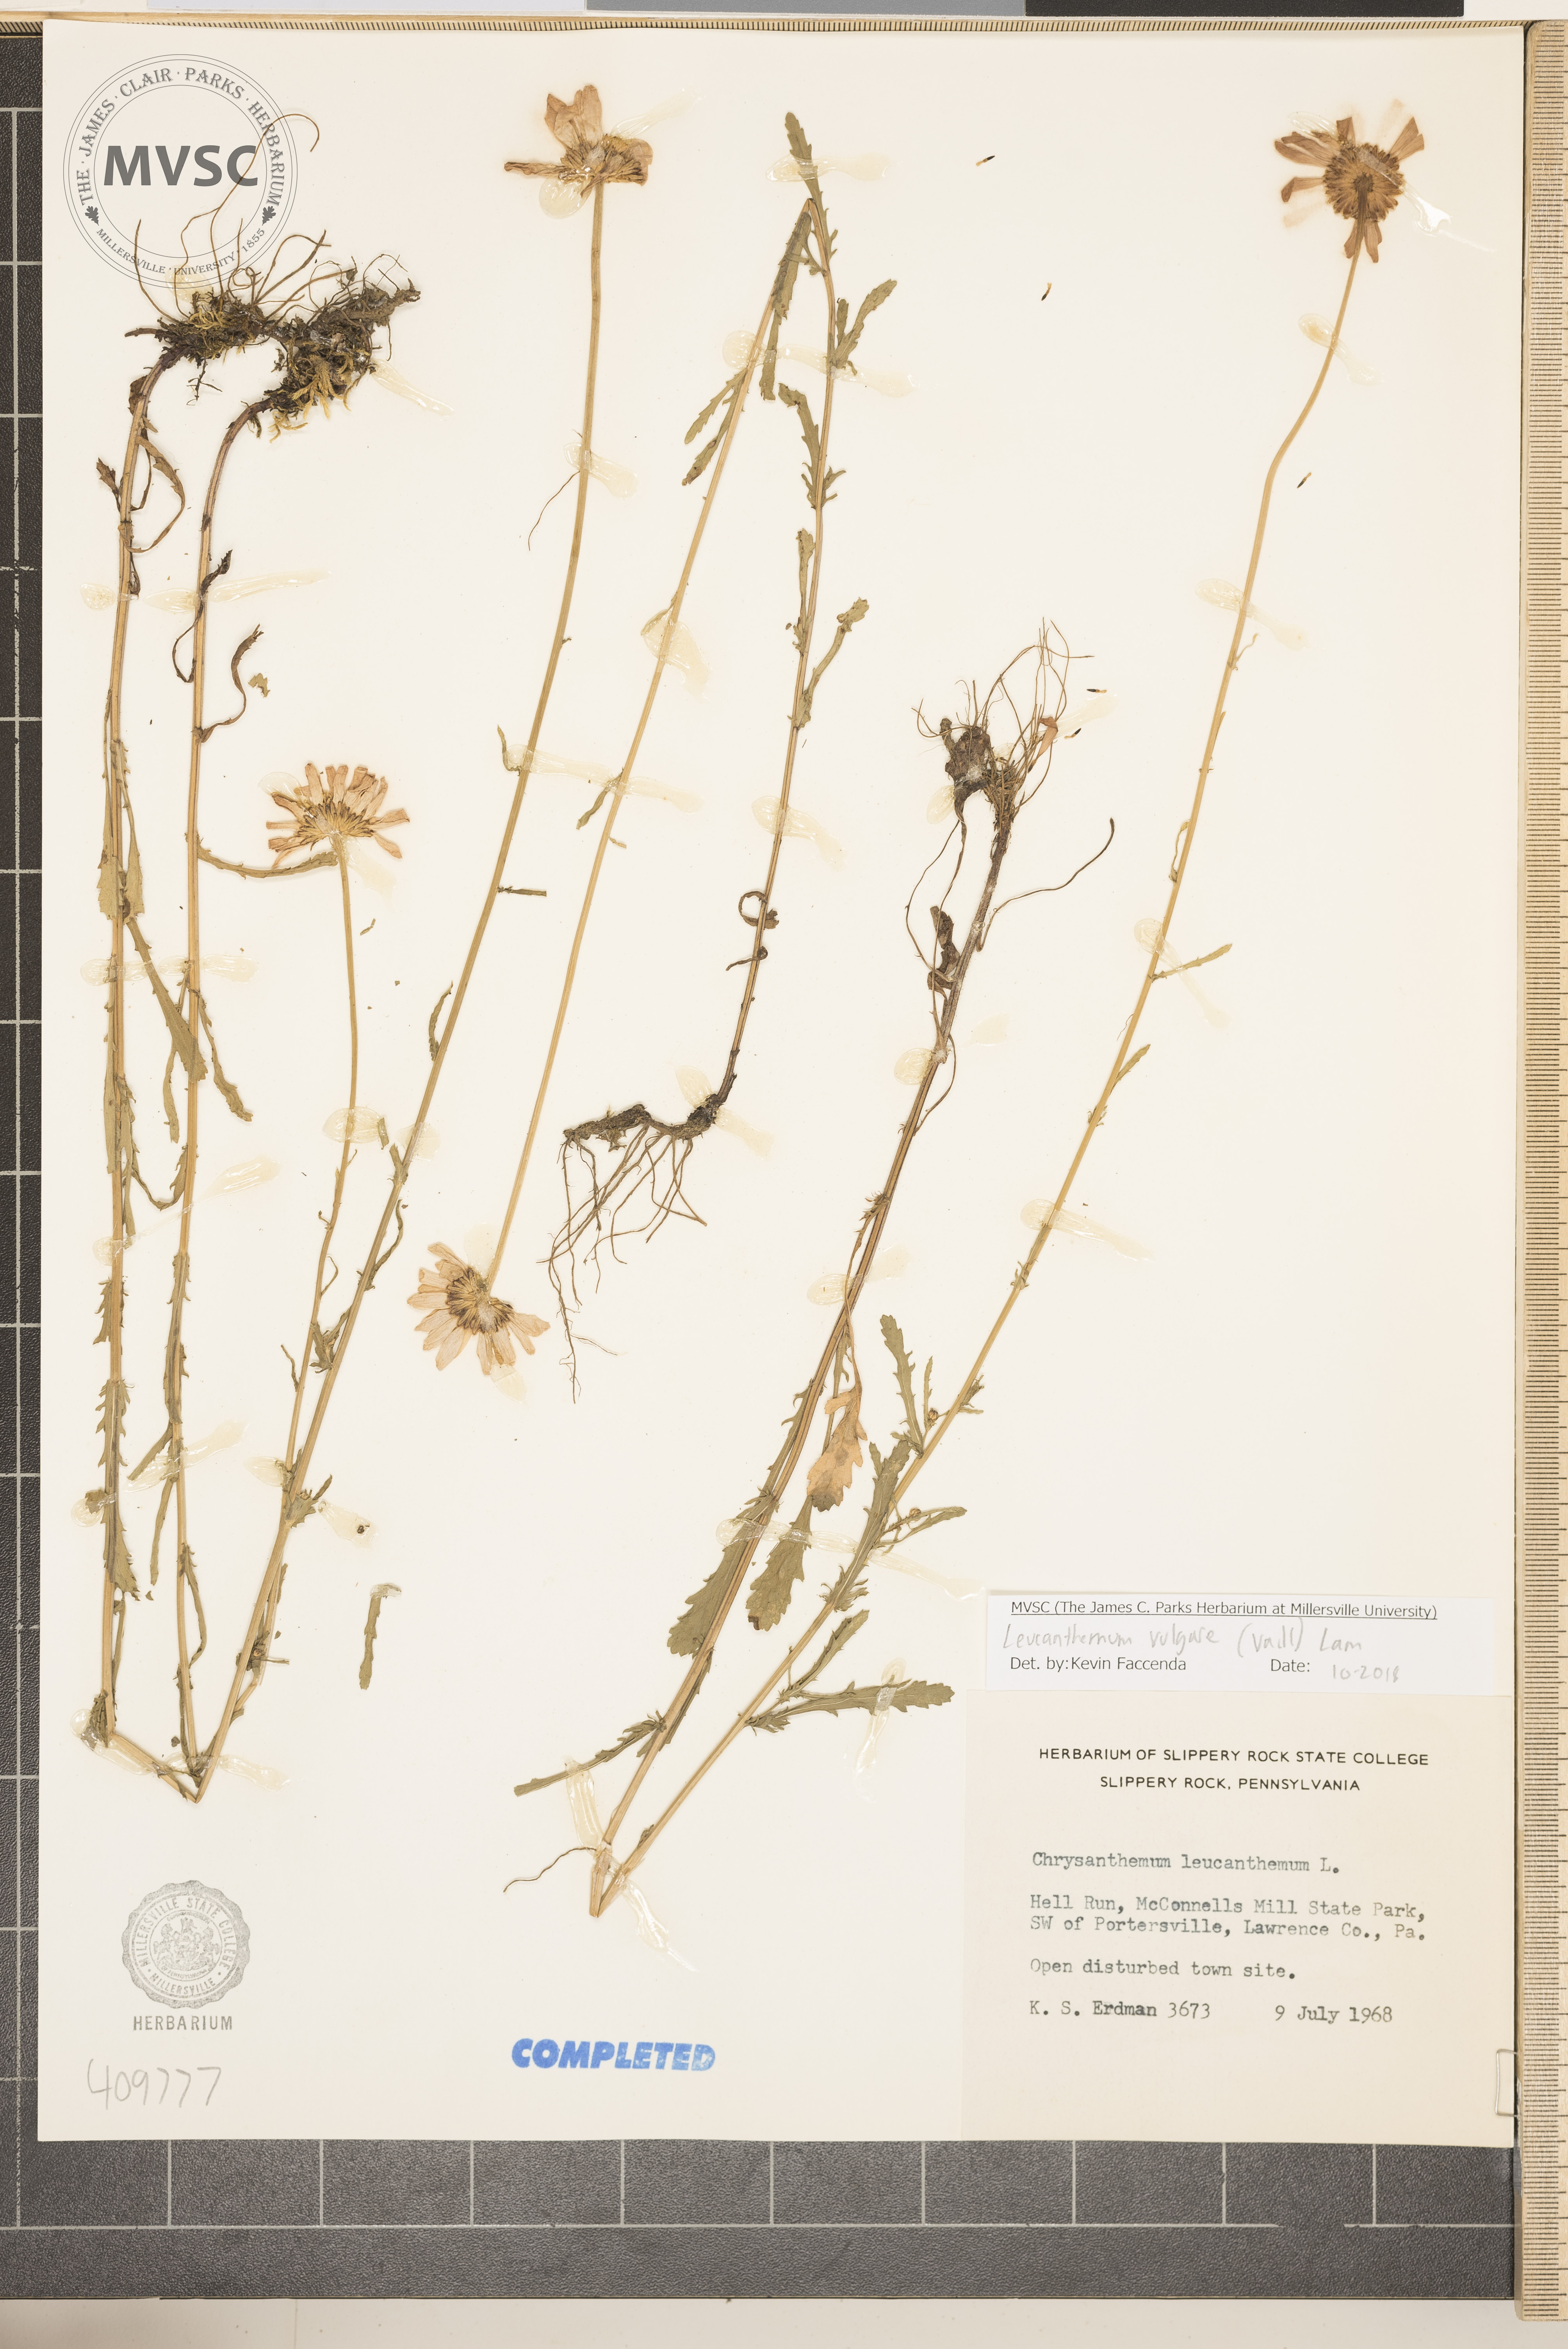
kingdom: Plantae
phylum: Tracheophyta
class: Magnoliopsida
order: Asterales
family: Asteraceae
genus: Leucanthemum
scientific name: Leucanthemum vulgare
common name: Oxeye daisy
